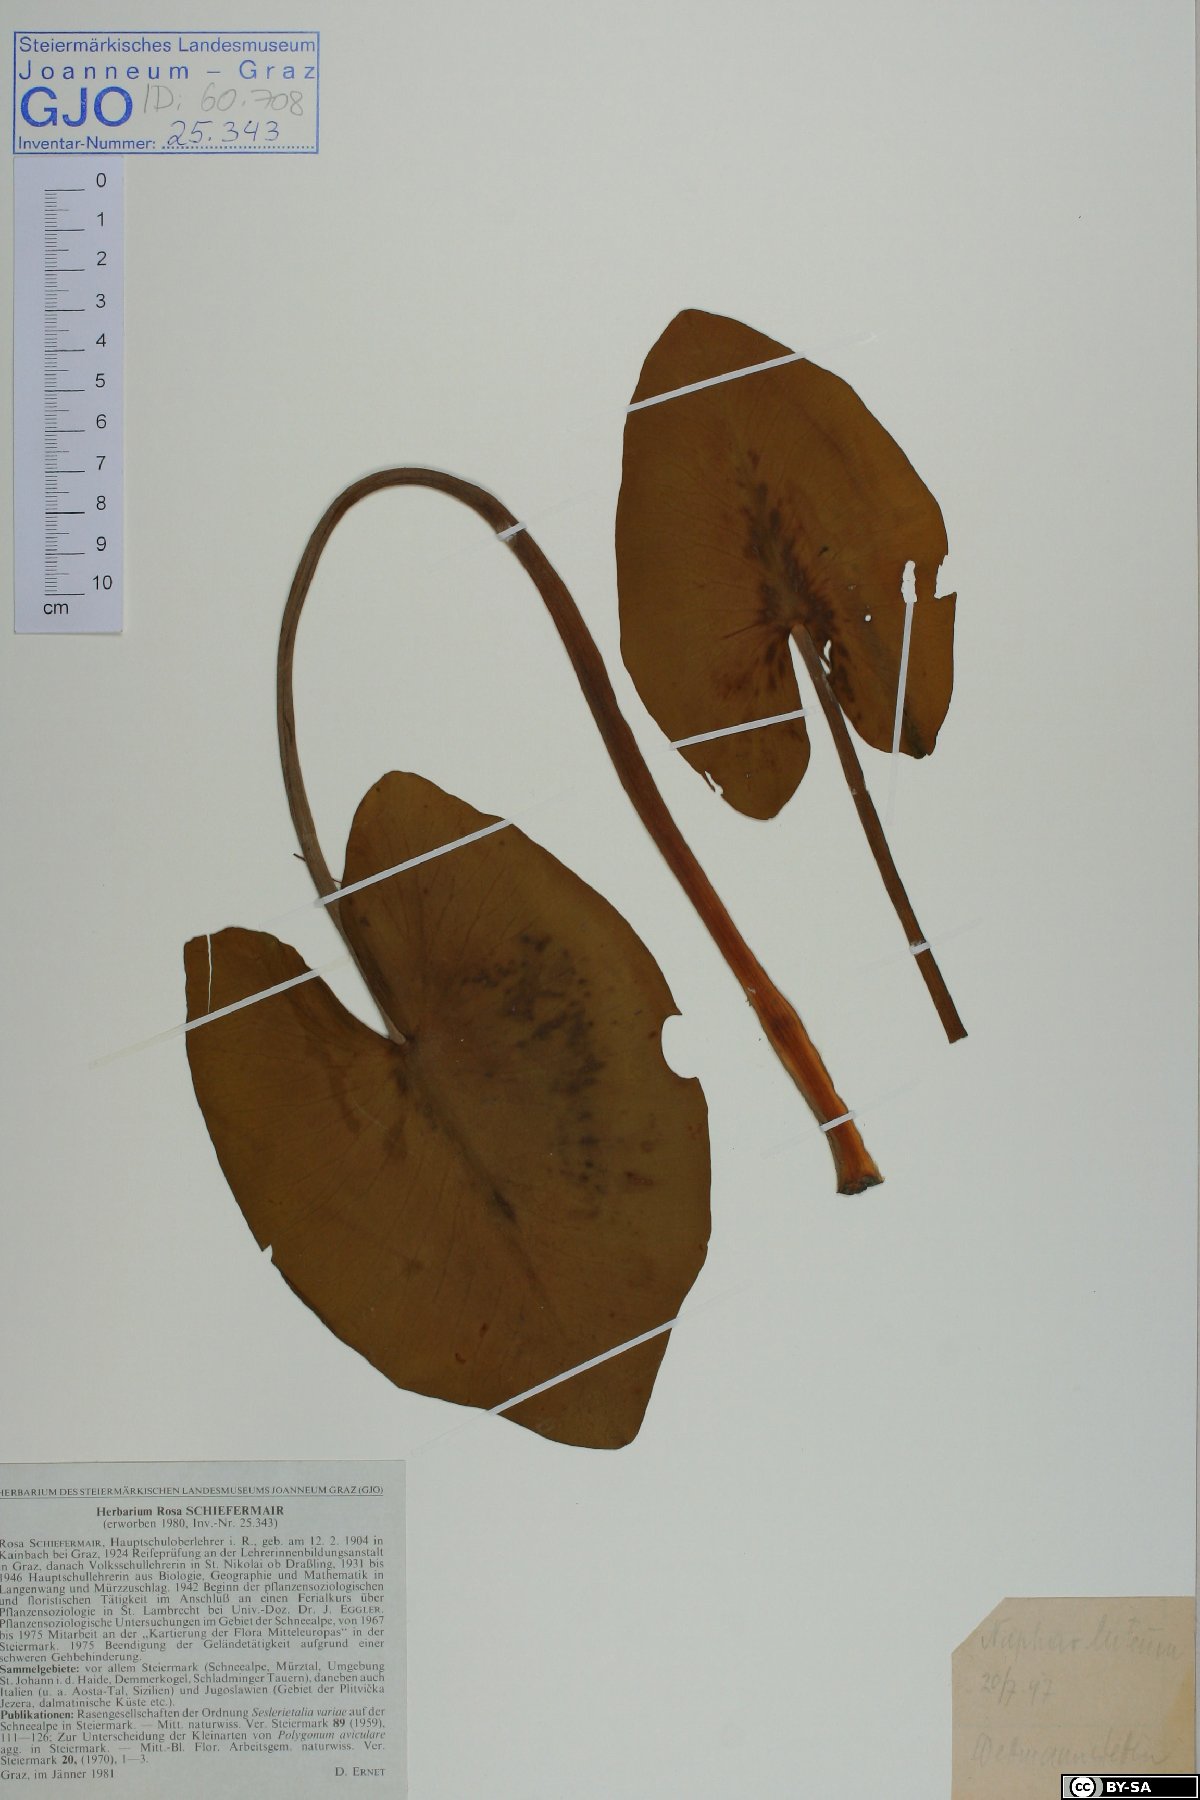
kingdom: Plantae
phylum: Tracheophyta
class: Magnoliopsida
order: Nymphaeales
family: Nymphaeaceae
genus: Nuphar
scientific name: Nuphar lutea
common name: Yellow water-lily
